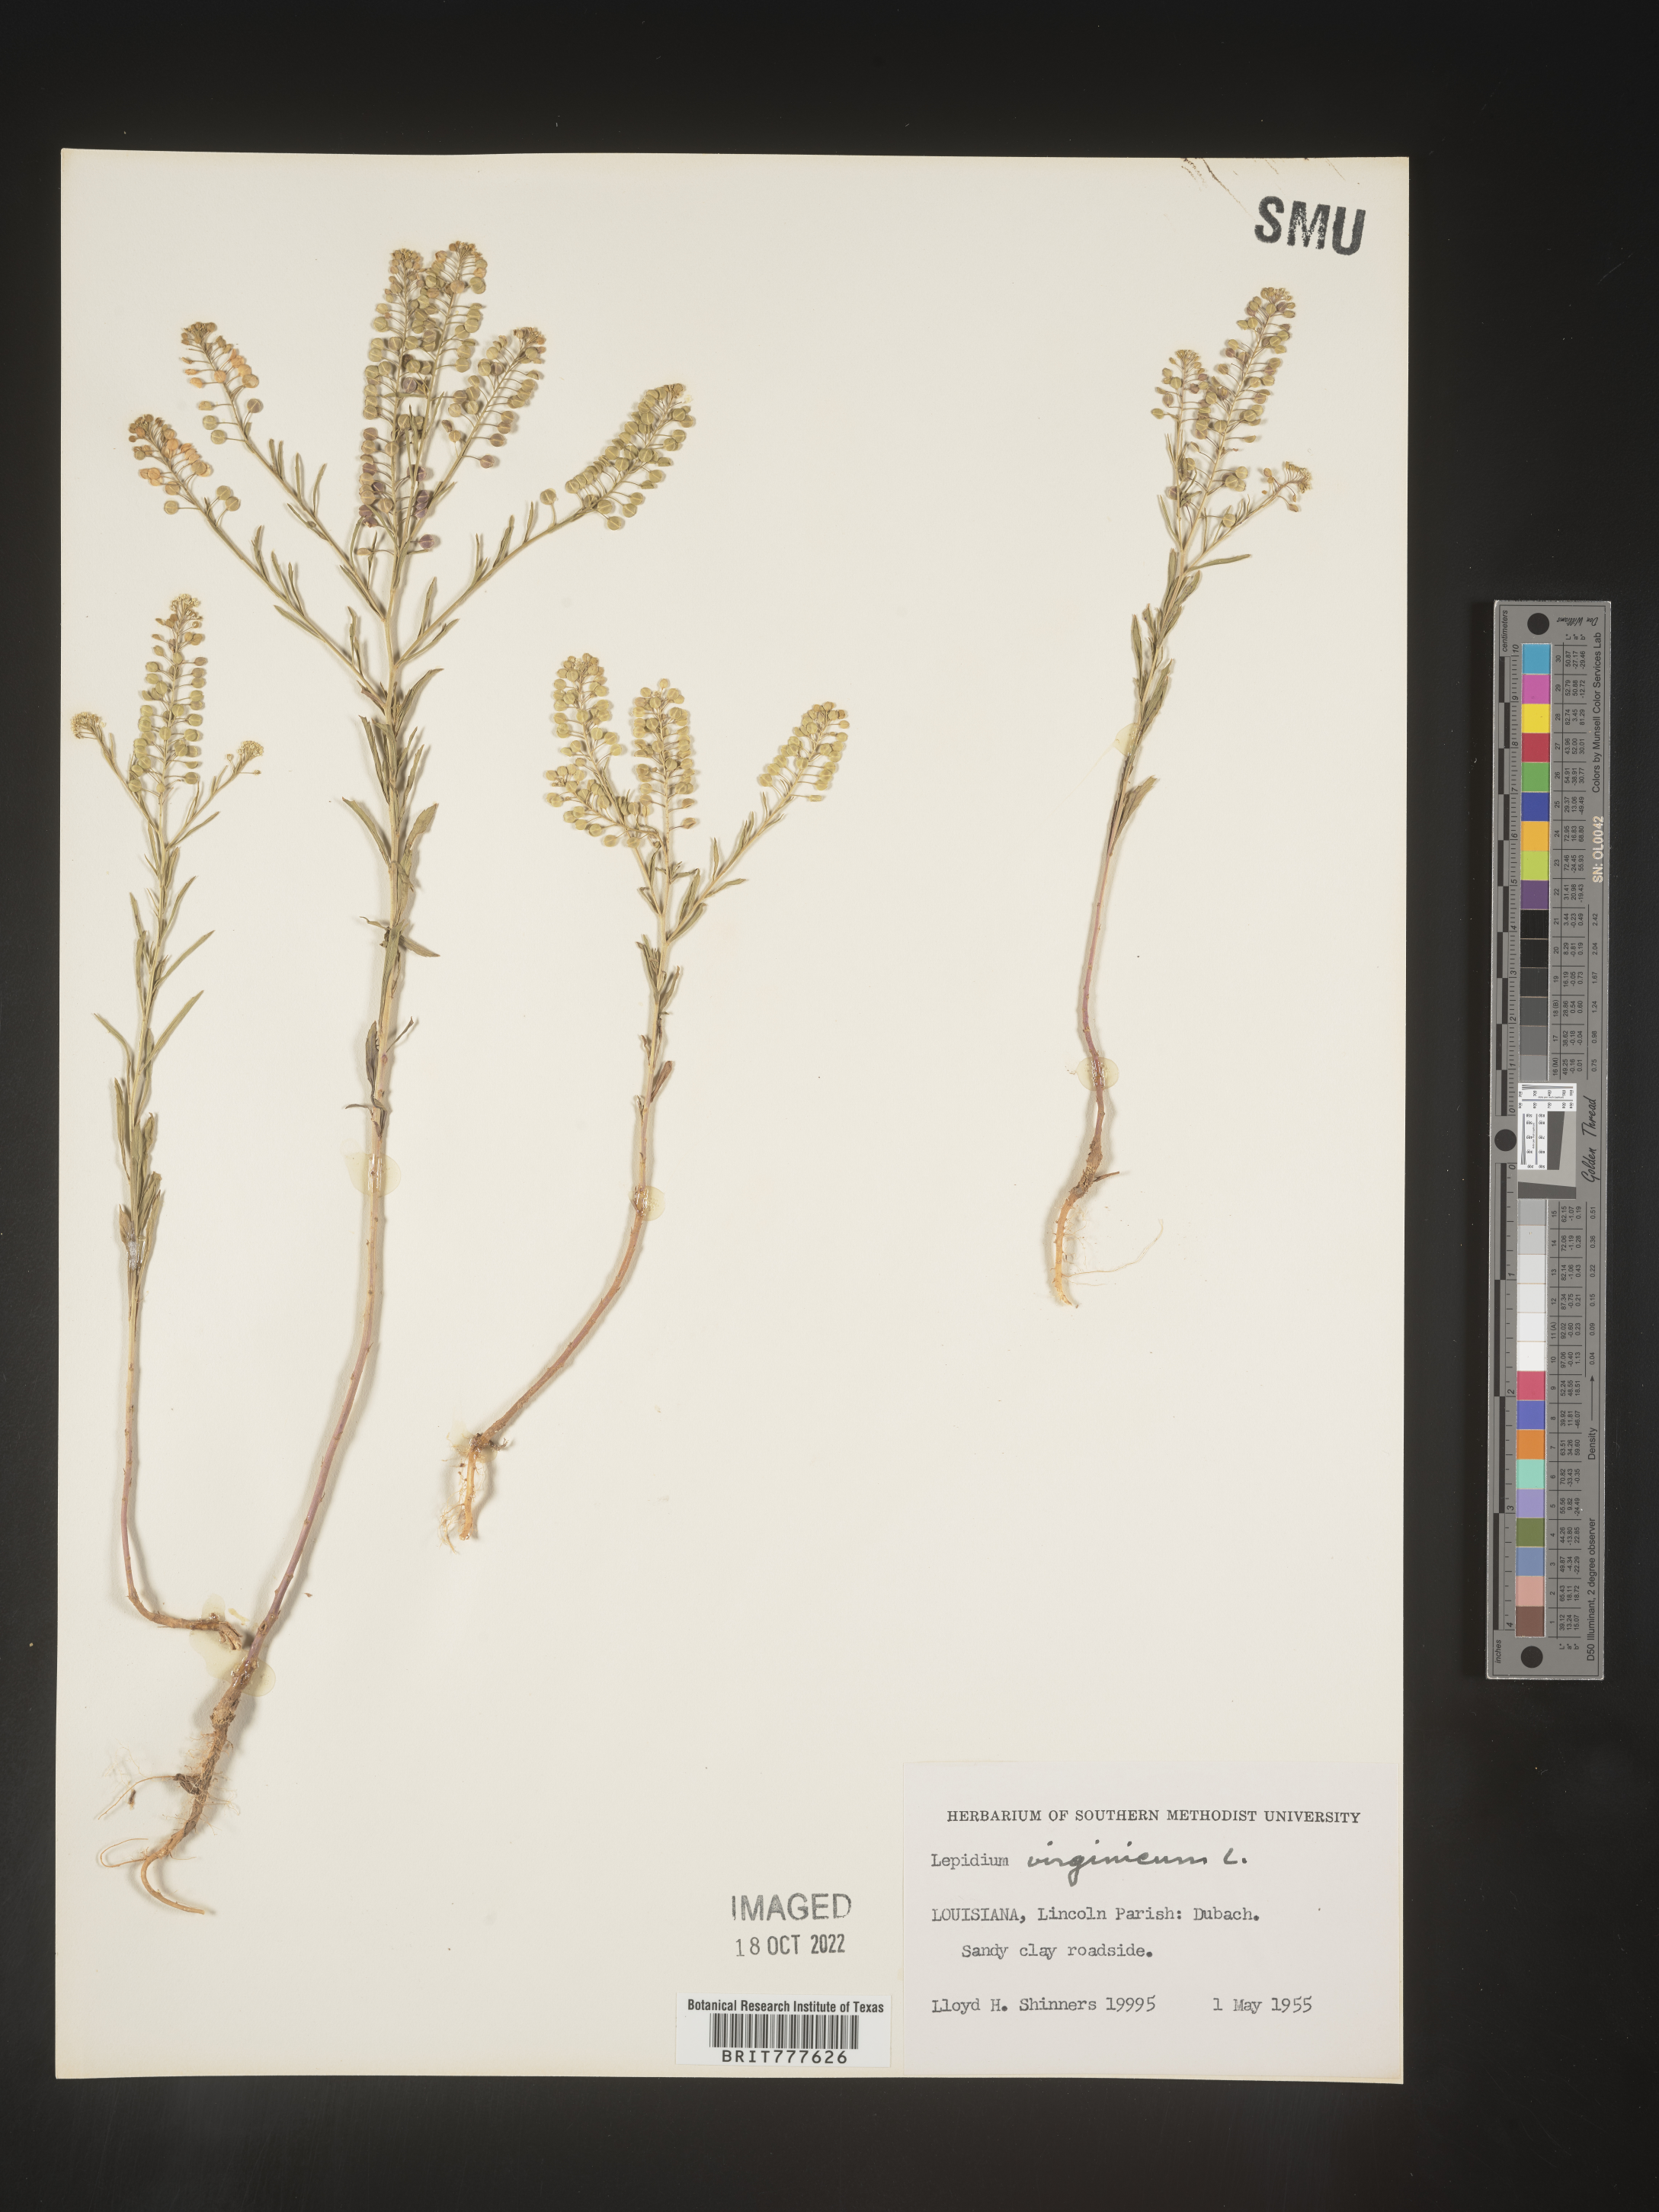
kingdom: Plantae
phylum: Tracheophyta
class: Magnoliopsida
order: Brassicales
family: Brassicaceae
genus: Lepidium
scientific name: Lepidium virginicum
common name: Least pepperwort
